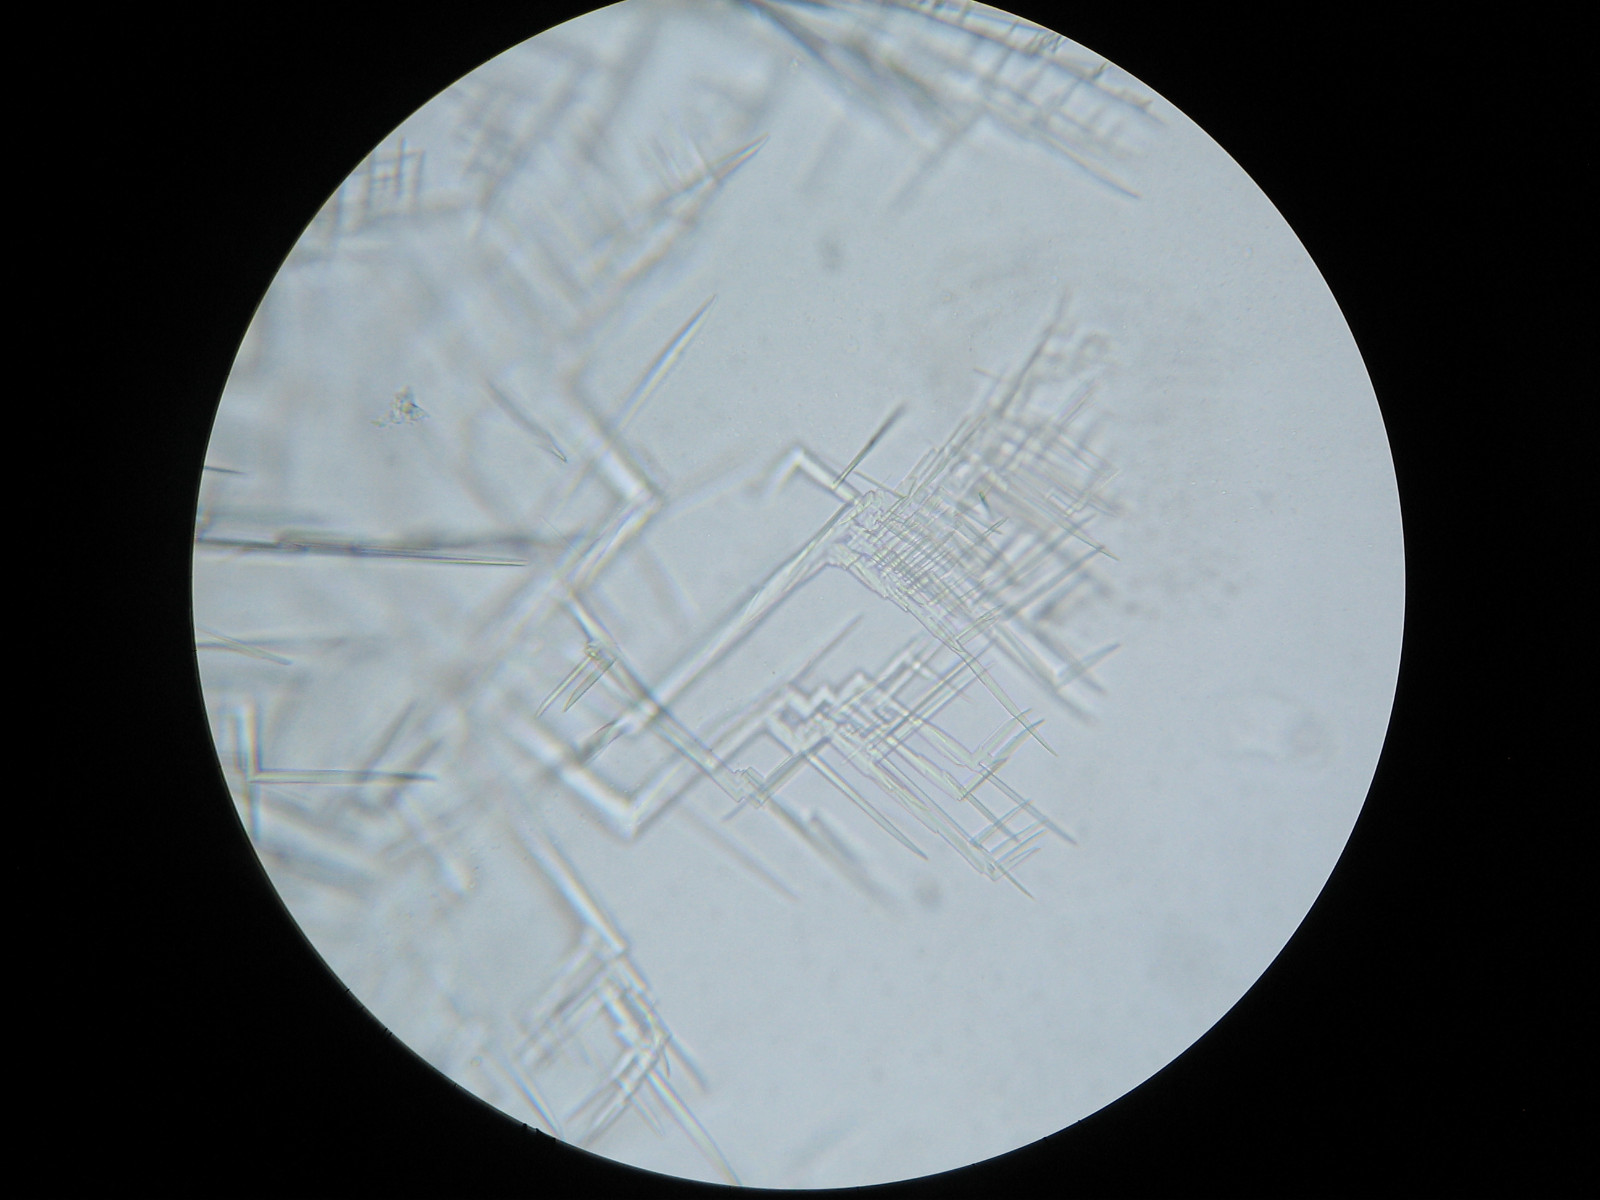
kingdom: Fungi
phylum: Ascomycota
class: Lecanoromycetes
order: Lecideales
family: Lecideaceae
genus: Lecidea
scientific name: Lecidea nylanderi
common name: Nylander's tile lichen
